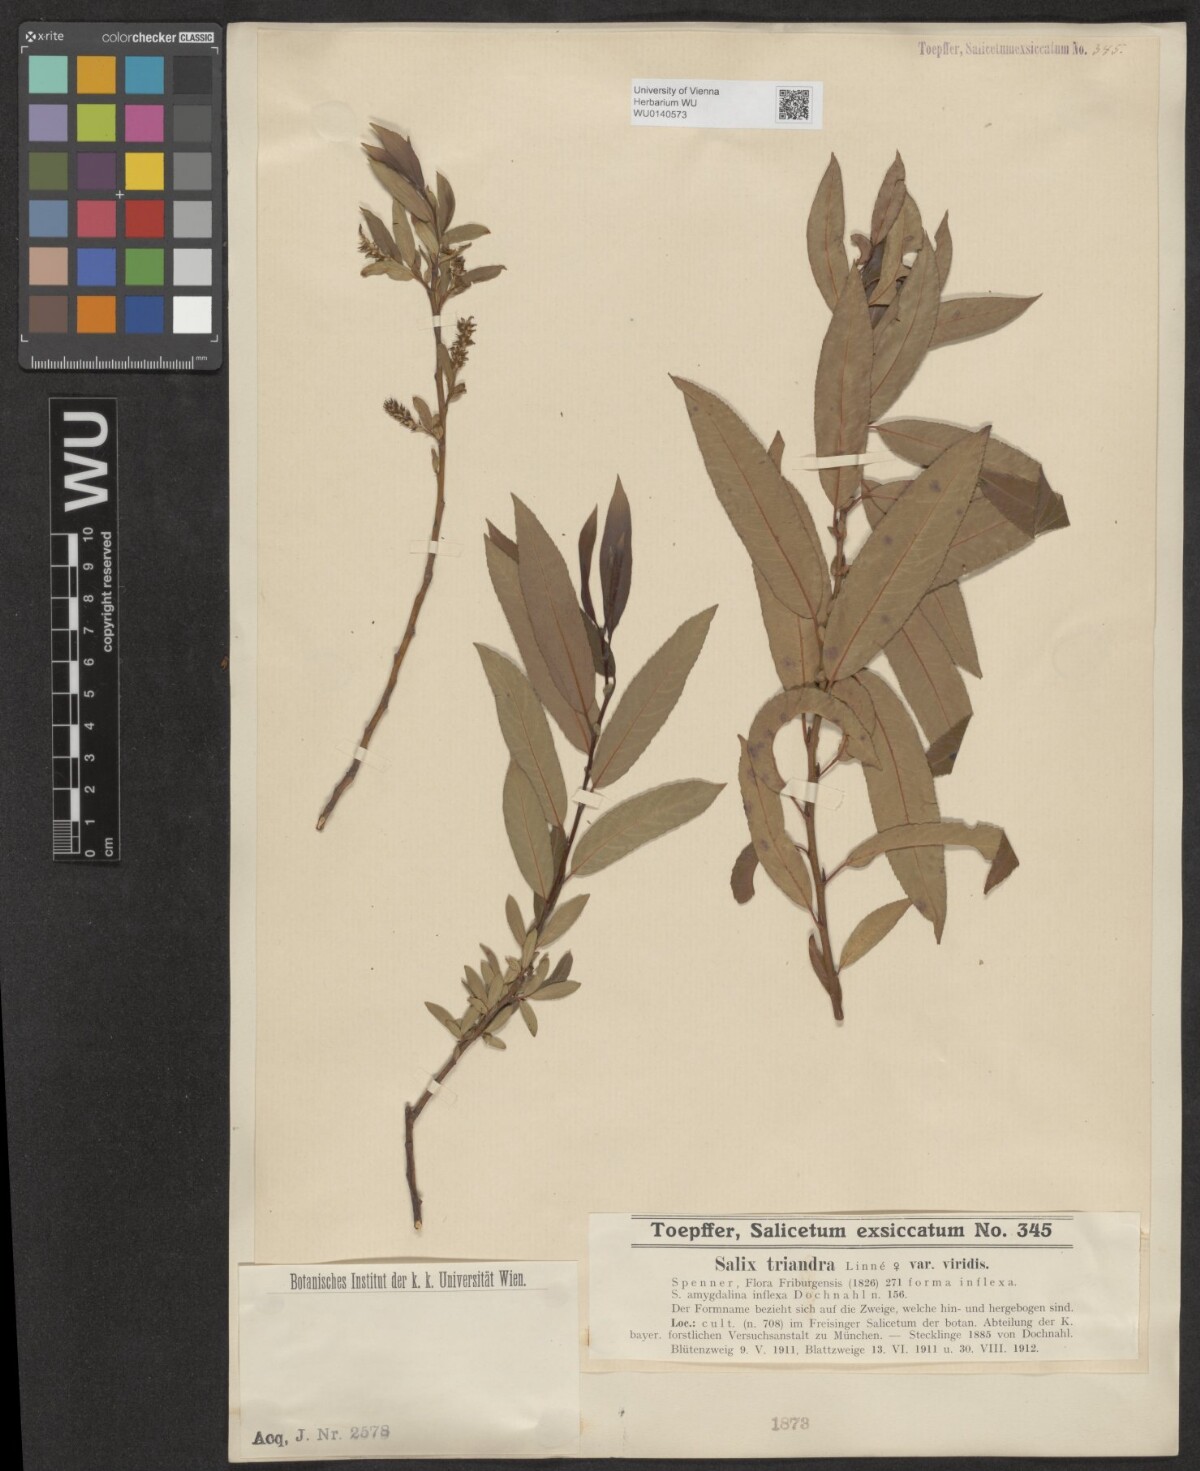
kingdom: Plantae
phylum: Tracheophyta
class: Magnoliopsida
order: Malpighiales
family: Salicaceae
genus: Salix
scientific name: Salix triandra
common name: Almond willow
